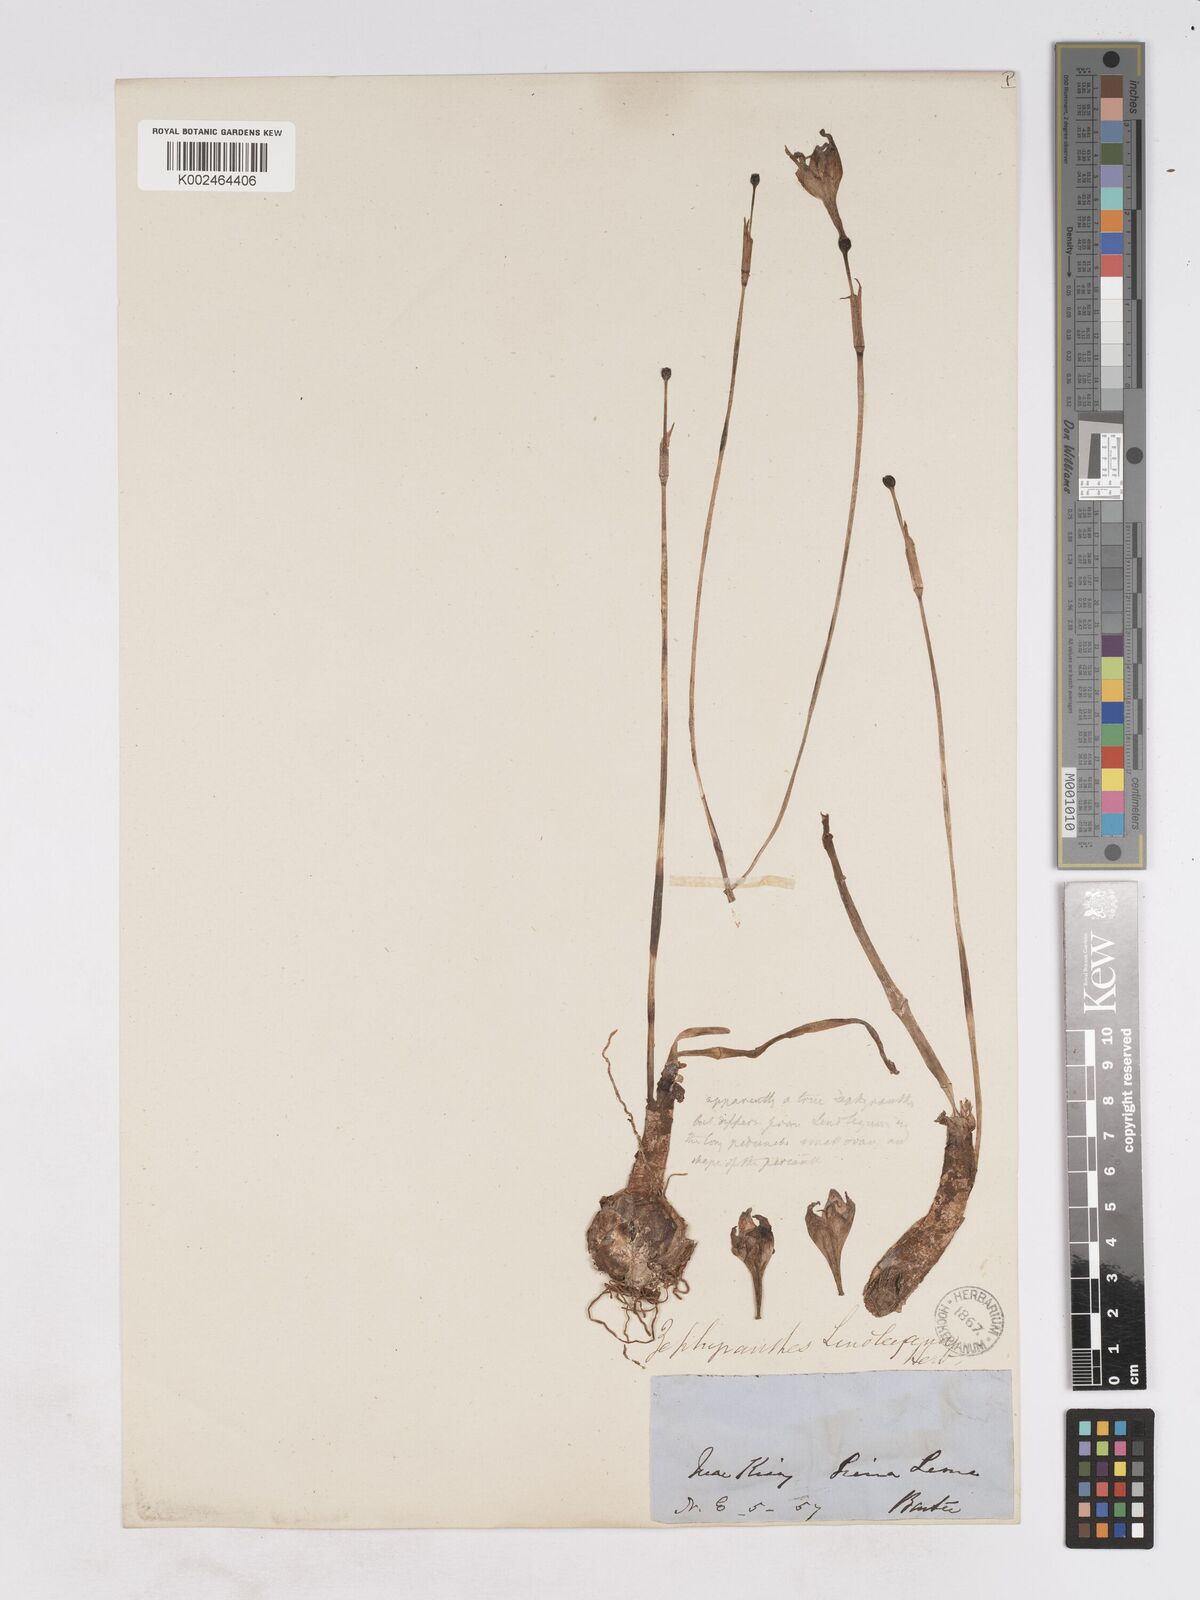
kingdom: Plantae
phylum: Tracheophyta
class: Liliopsida
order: Asparagales
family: Amaryllidaceae
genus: Zephyranthes
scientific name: Zephyranthes lindleyana
